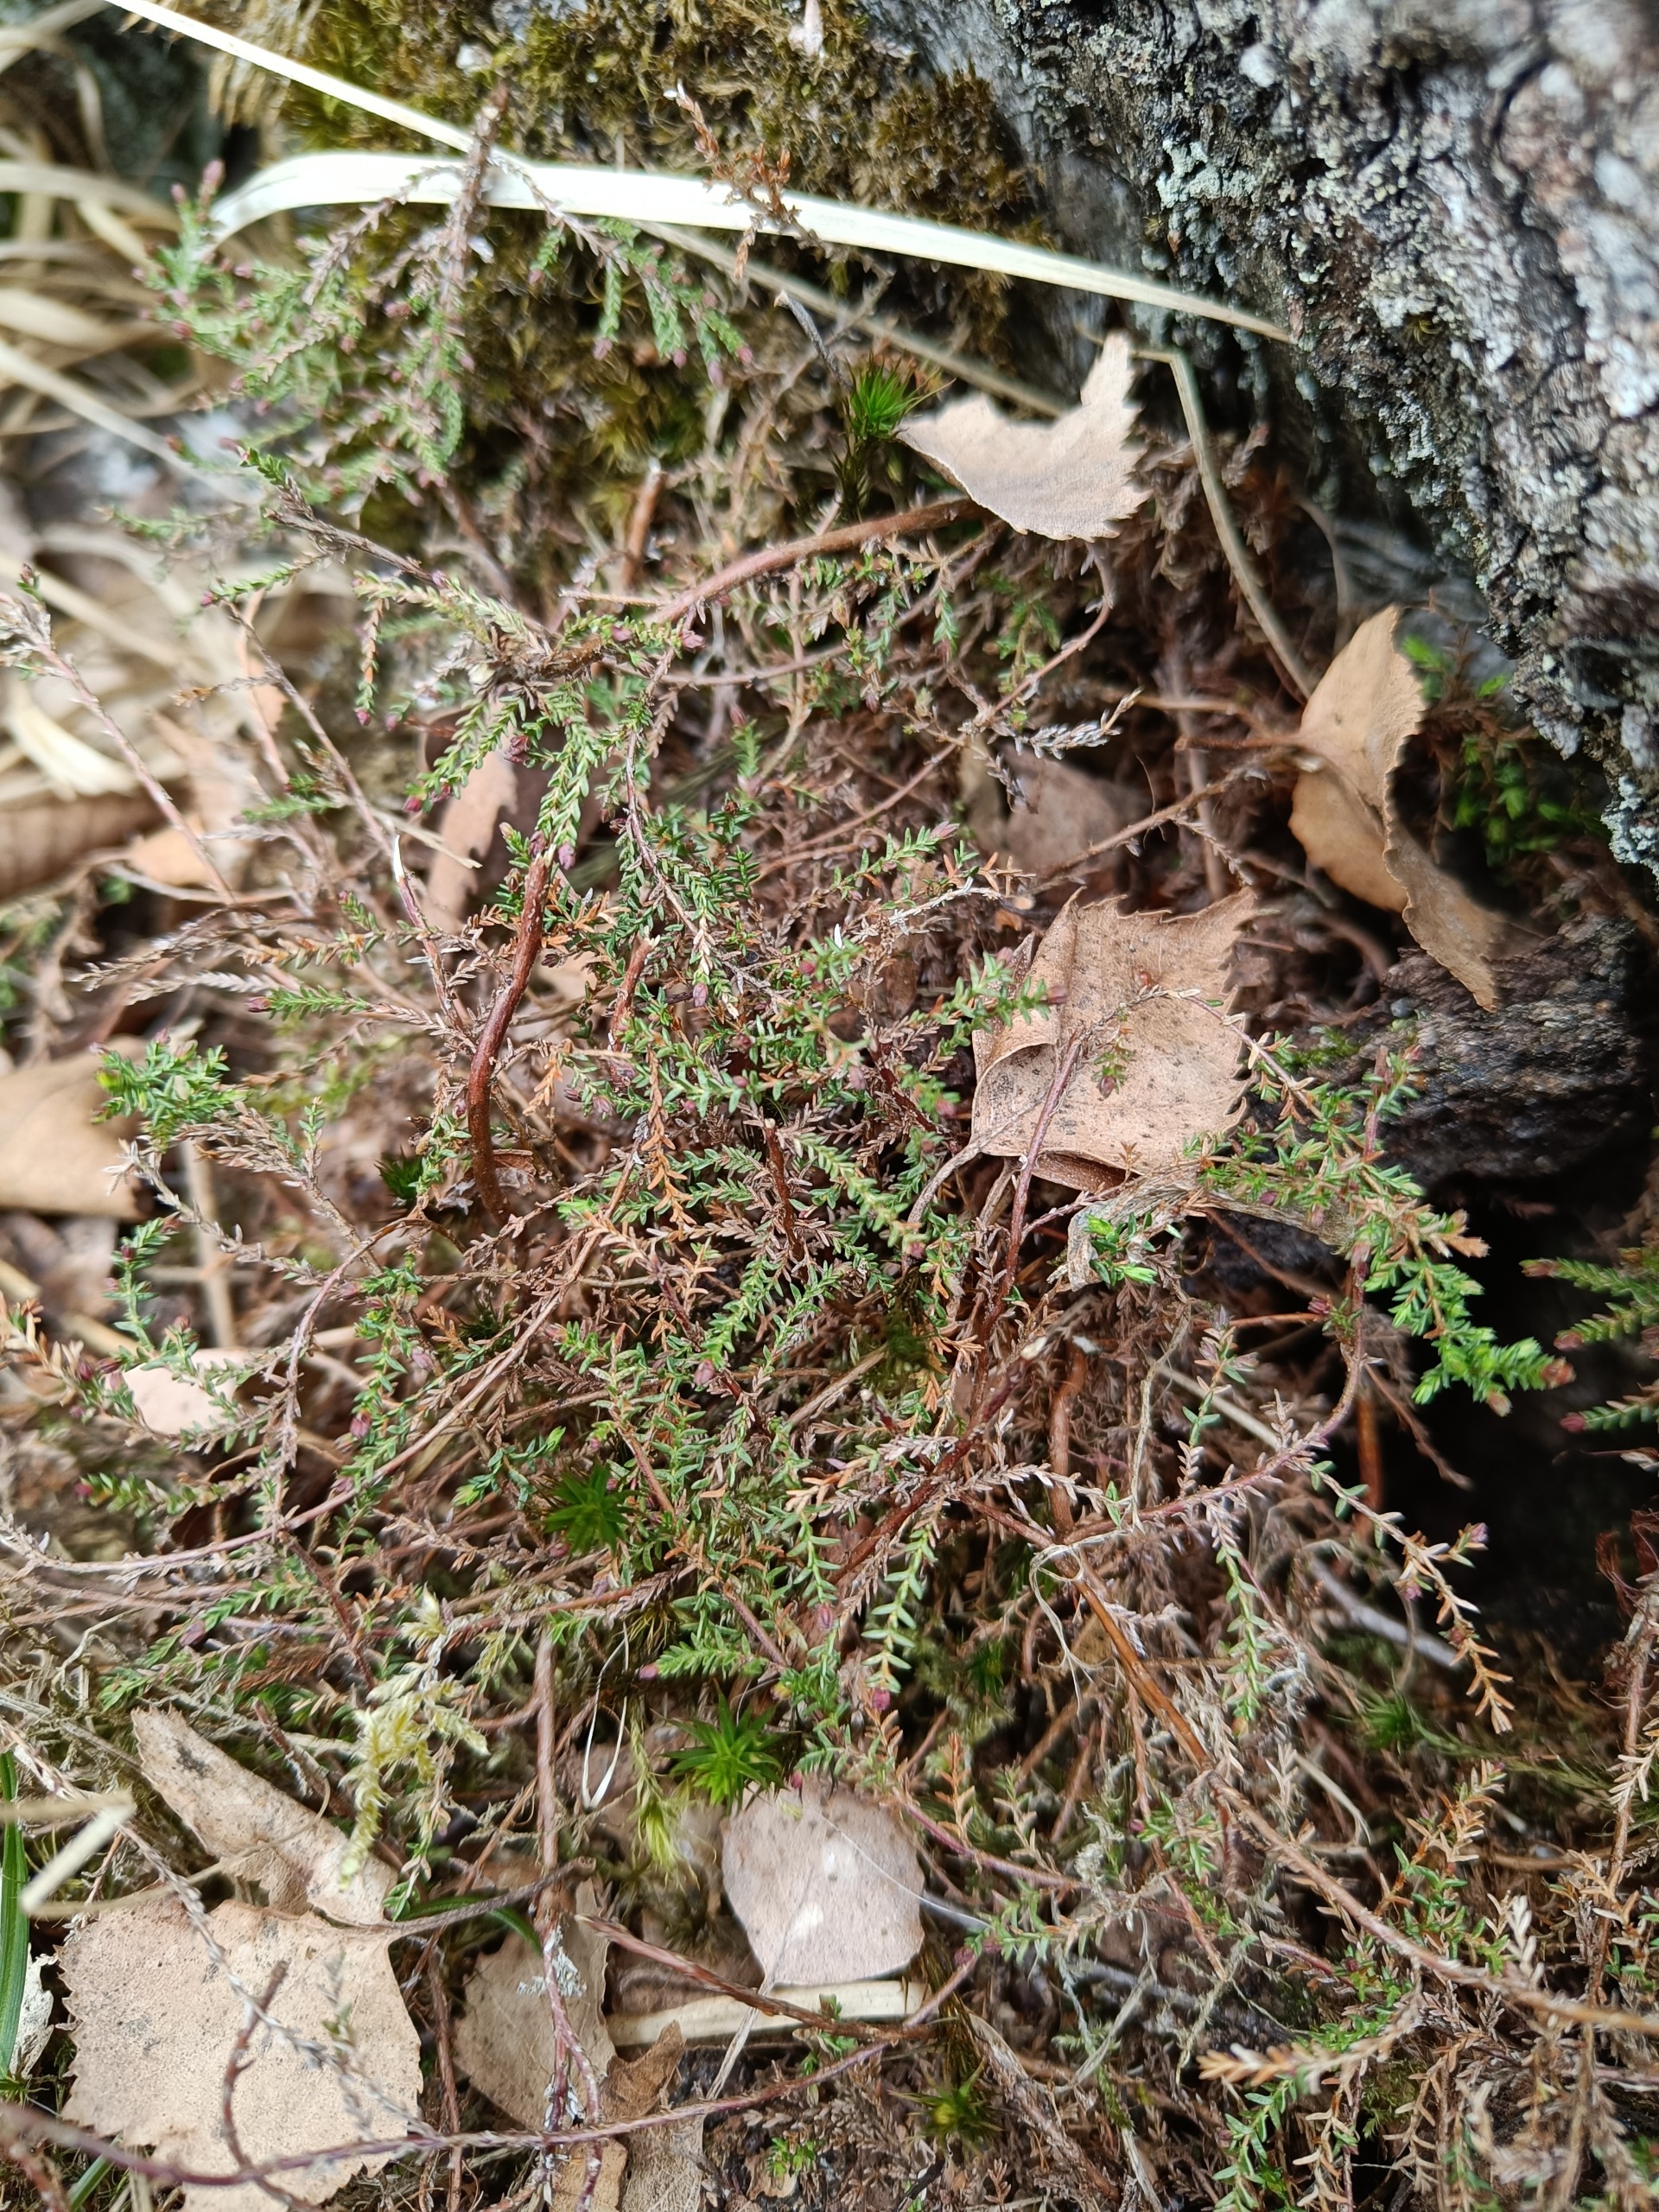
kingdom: Plantae
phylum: Tracheophyta
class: Magnoliopsida
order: Ericales
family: Ericaceae
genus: Calluna
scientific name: Calluna vulgaris
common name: Hedelyng
